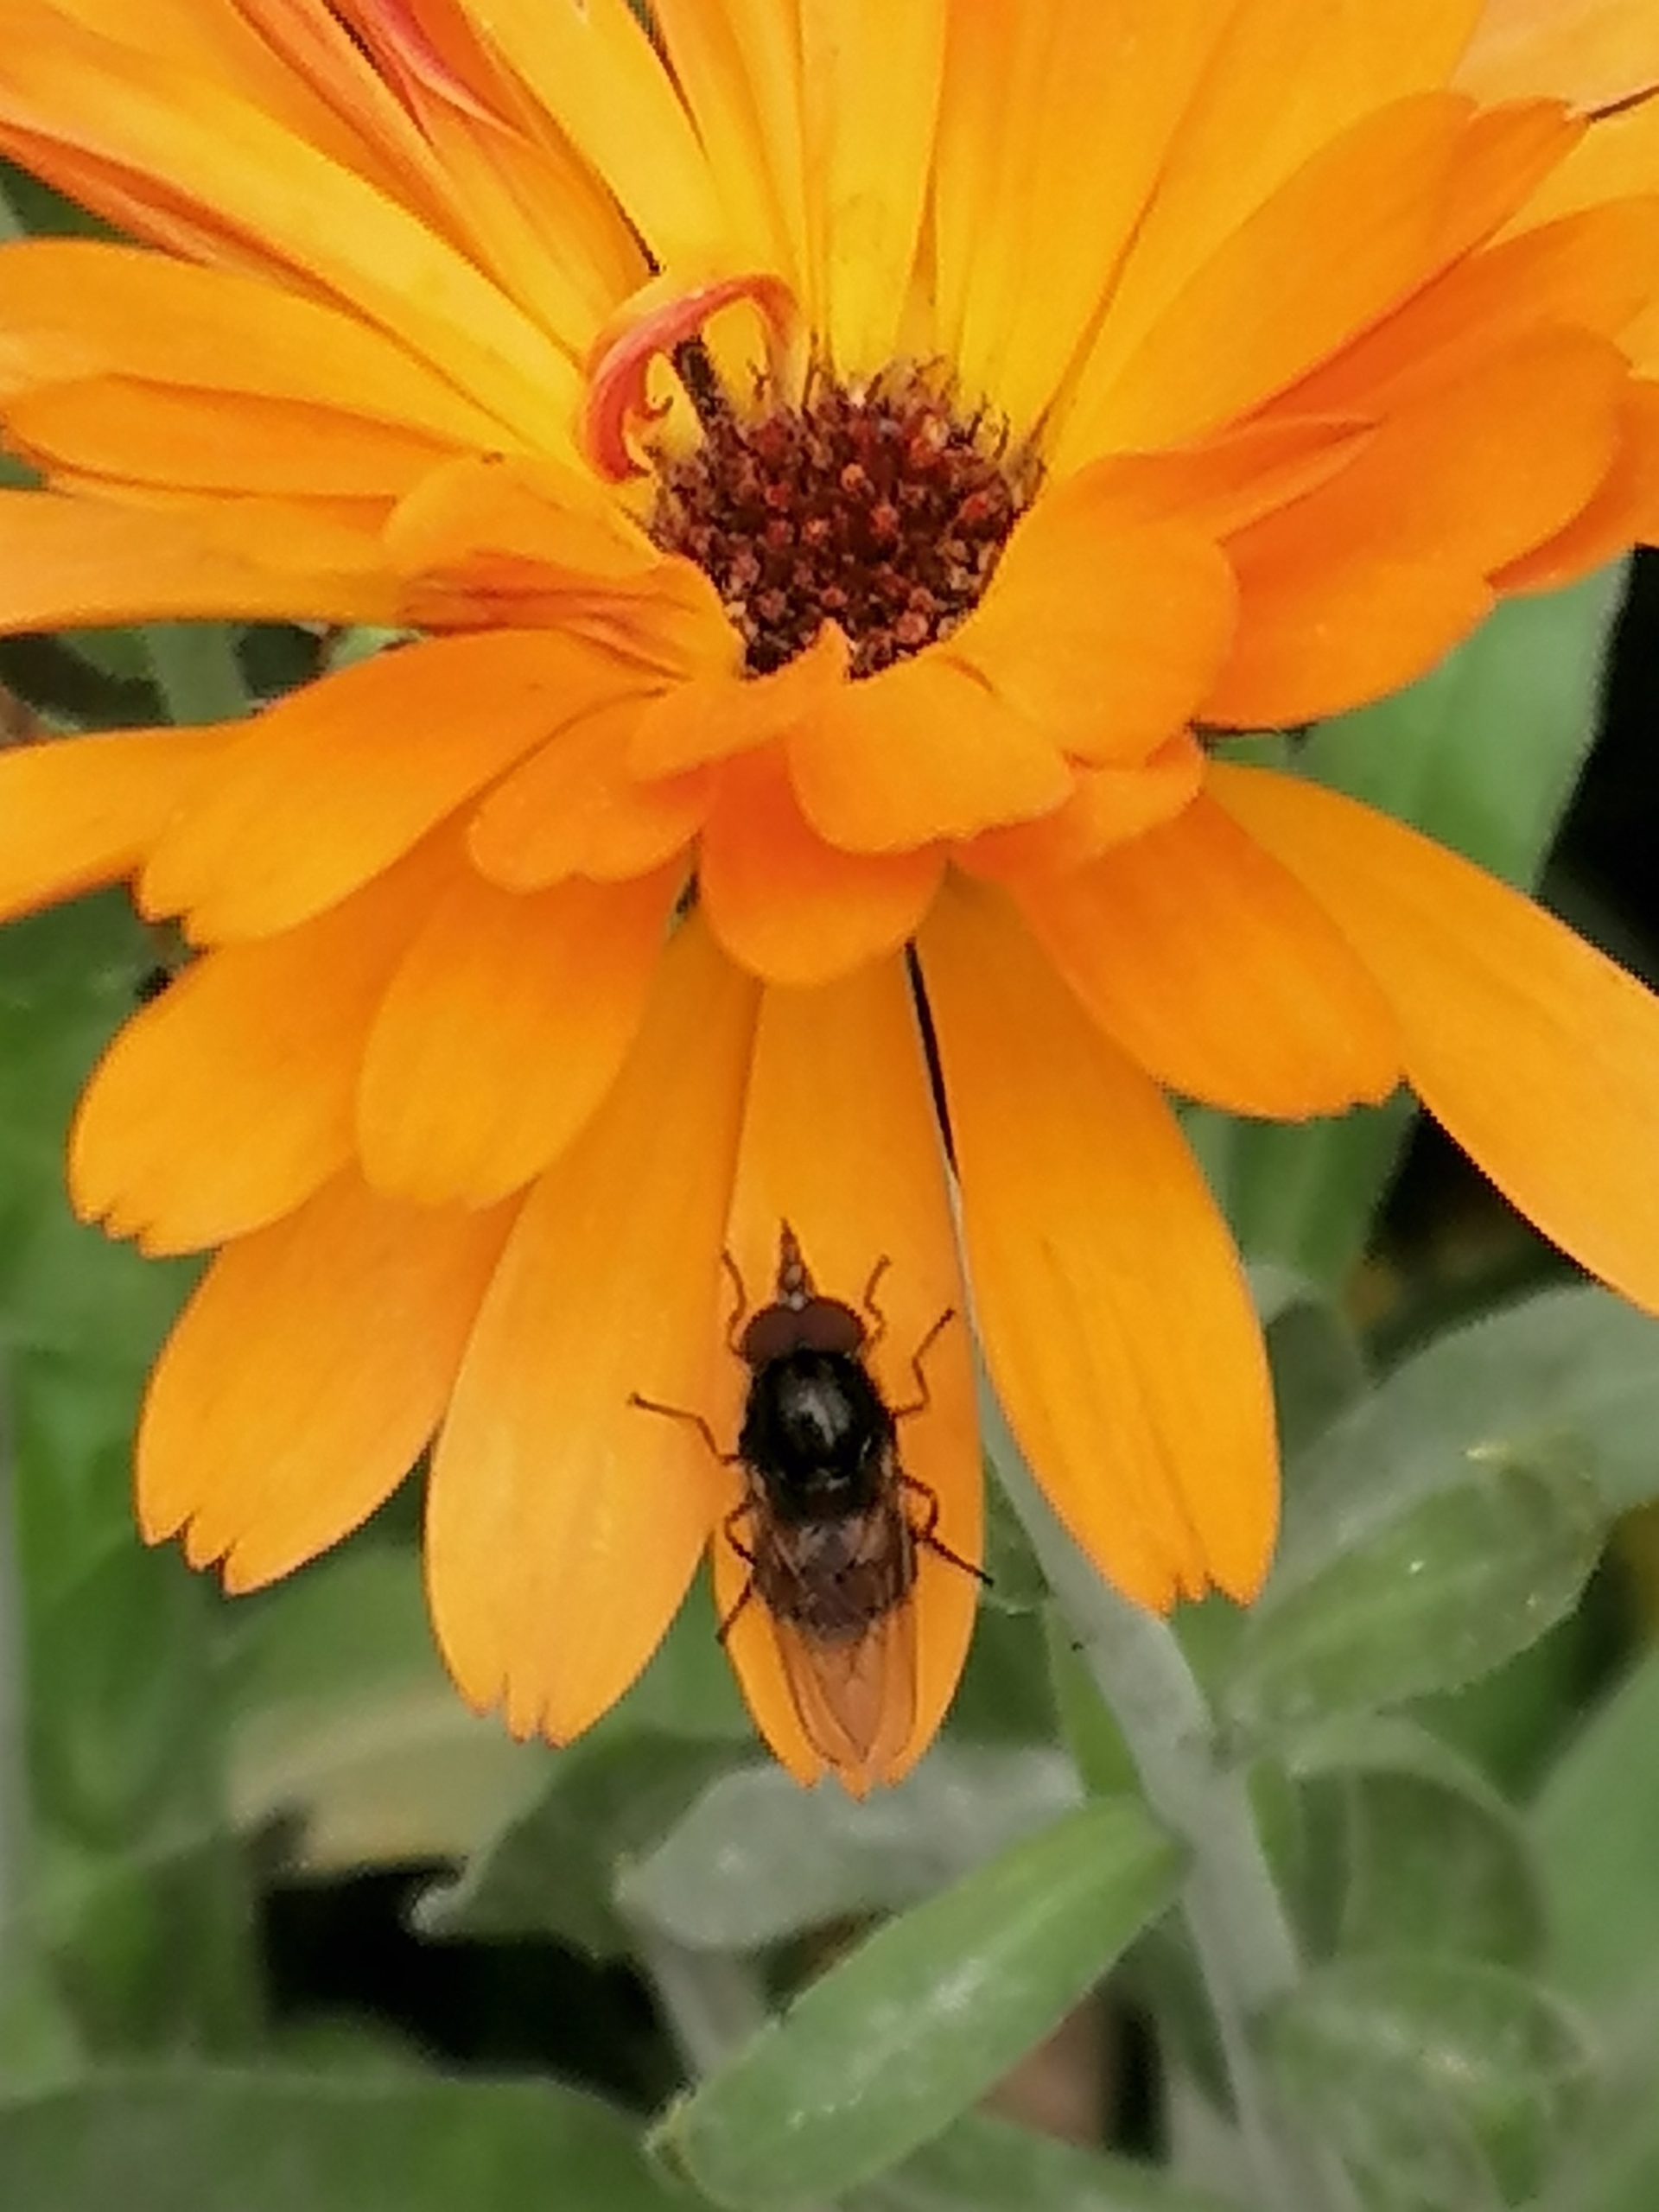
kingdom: Animalia
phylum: Arthropoda
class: Insecta
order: Diptera
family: Syrphidae
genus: Rhingia
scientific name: Rhingia campestris
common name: Mark-snabelsvirreflue
